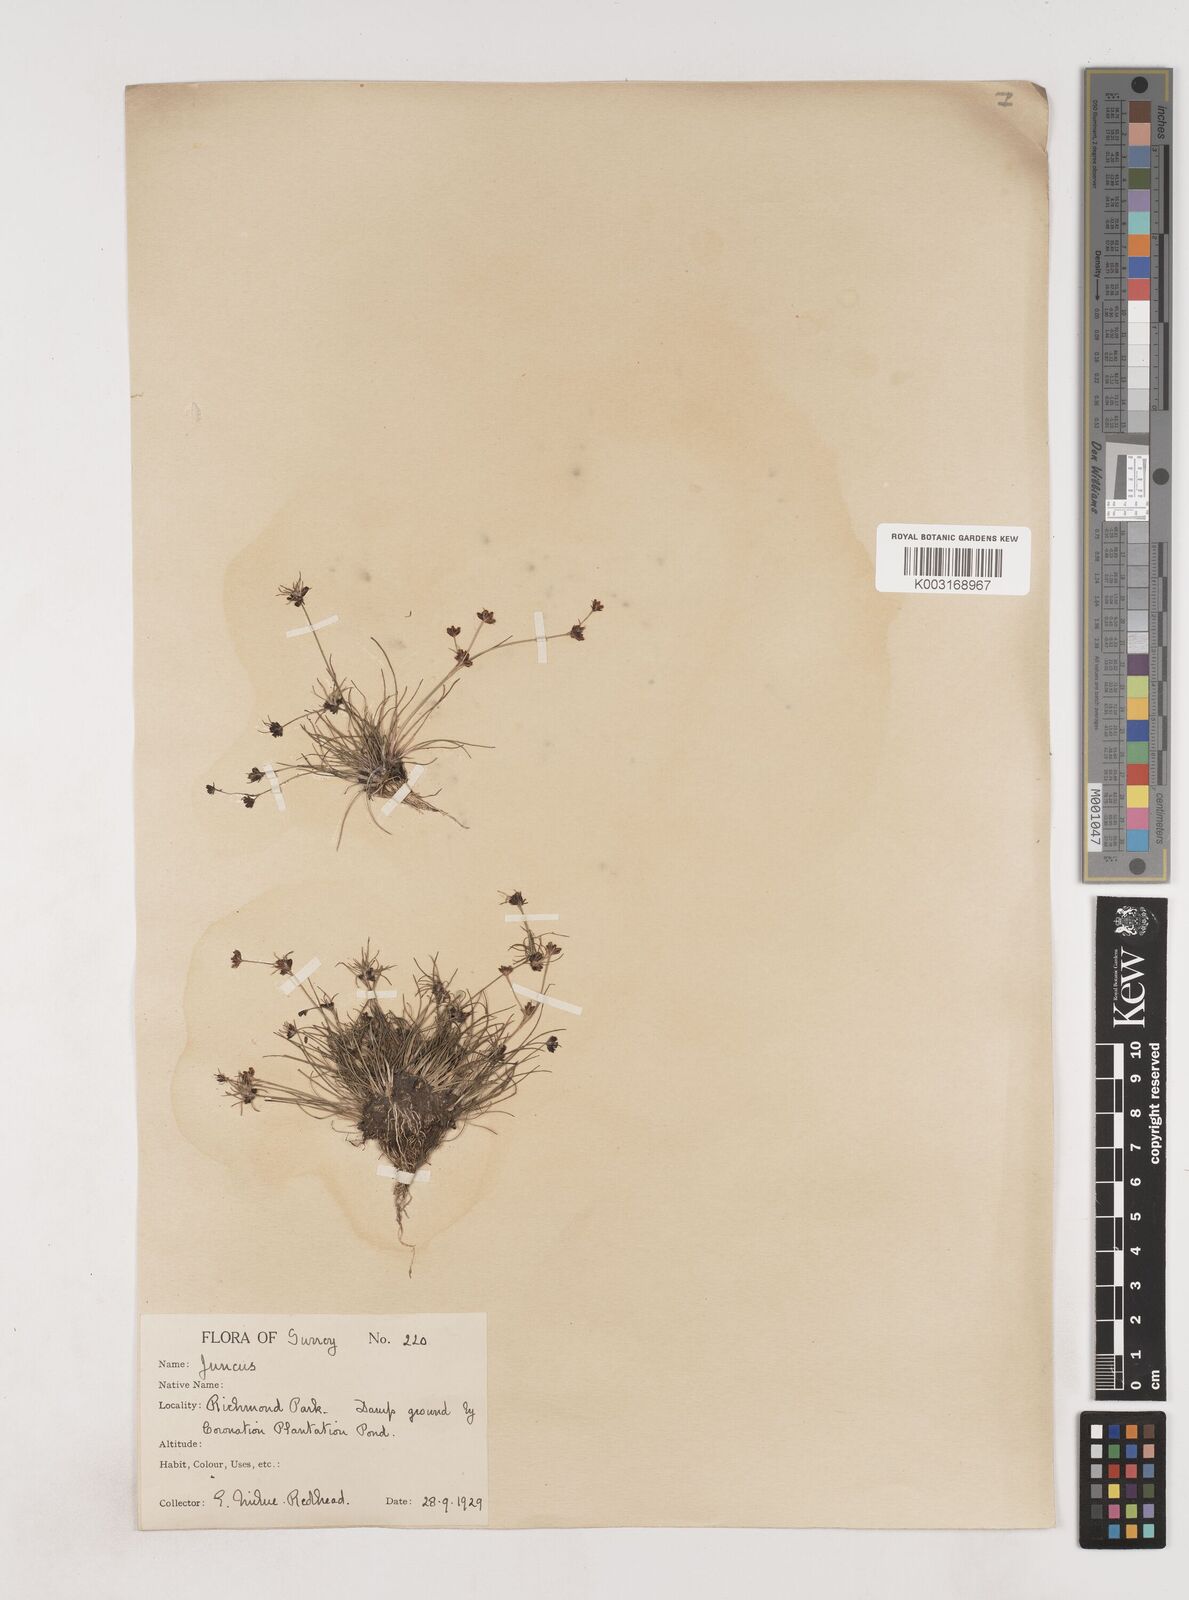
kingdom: Plantae
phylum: Tracheophyta
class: Liliopsida
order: Poales
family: Juncaceae
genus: Juncus
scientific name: Juncus bulbosus
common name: Bulbous rush
